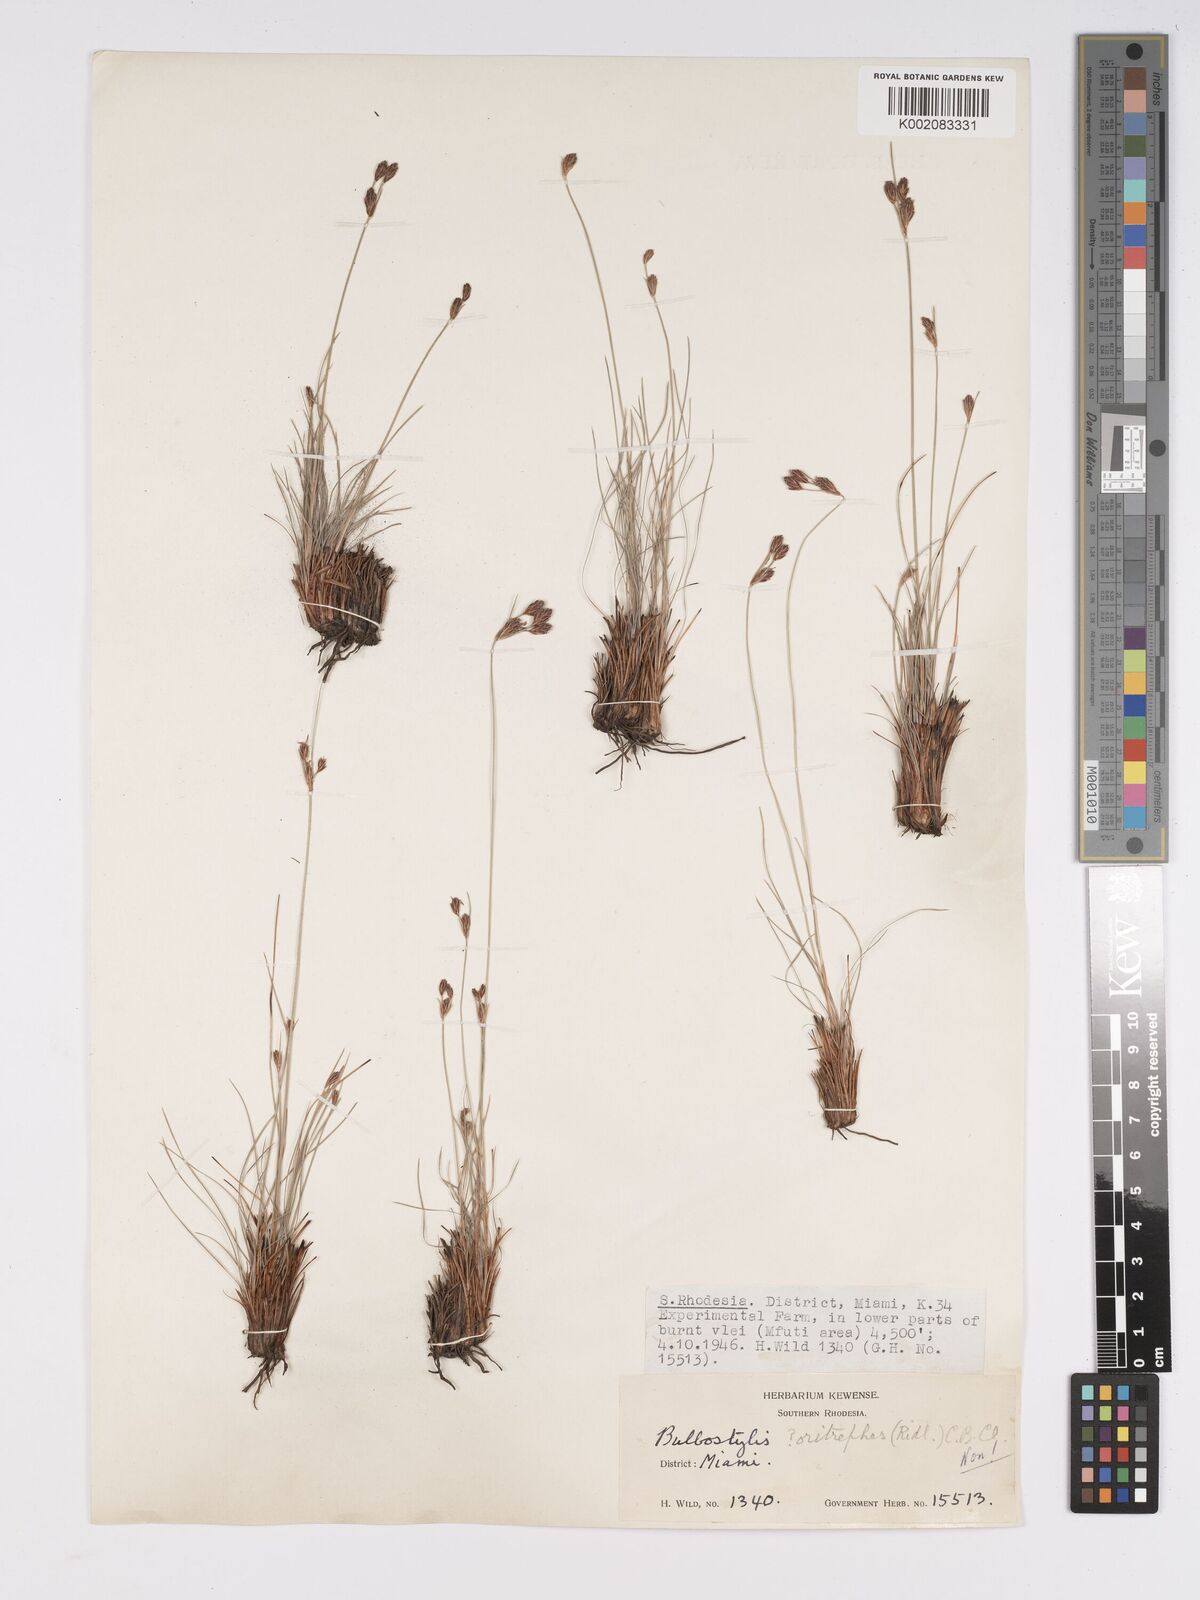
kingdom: Plantae
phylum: Tracheophyta
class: Liliopsida
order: Poales
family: Cyperaceae
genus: Bulbostylis
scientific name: Bulbostylis schoenoides
